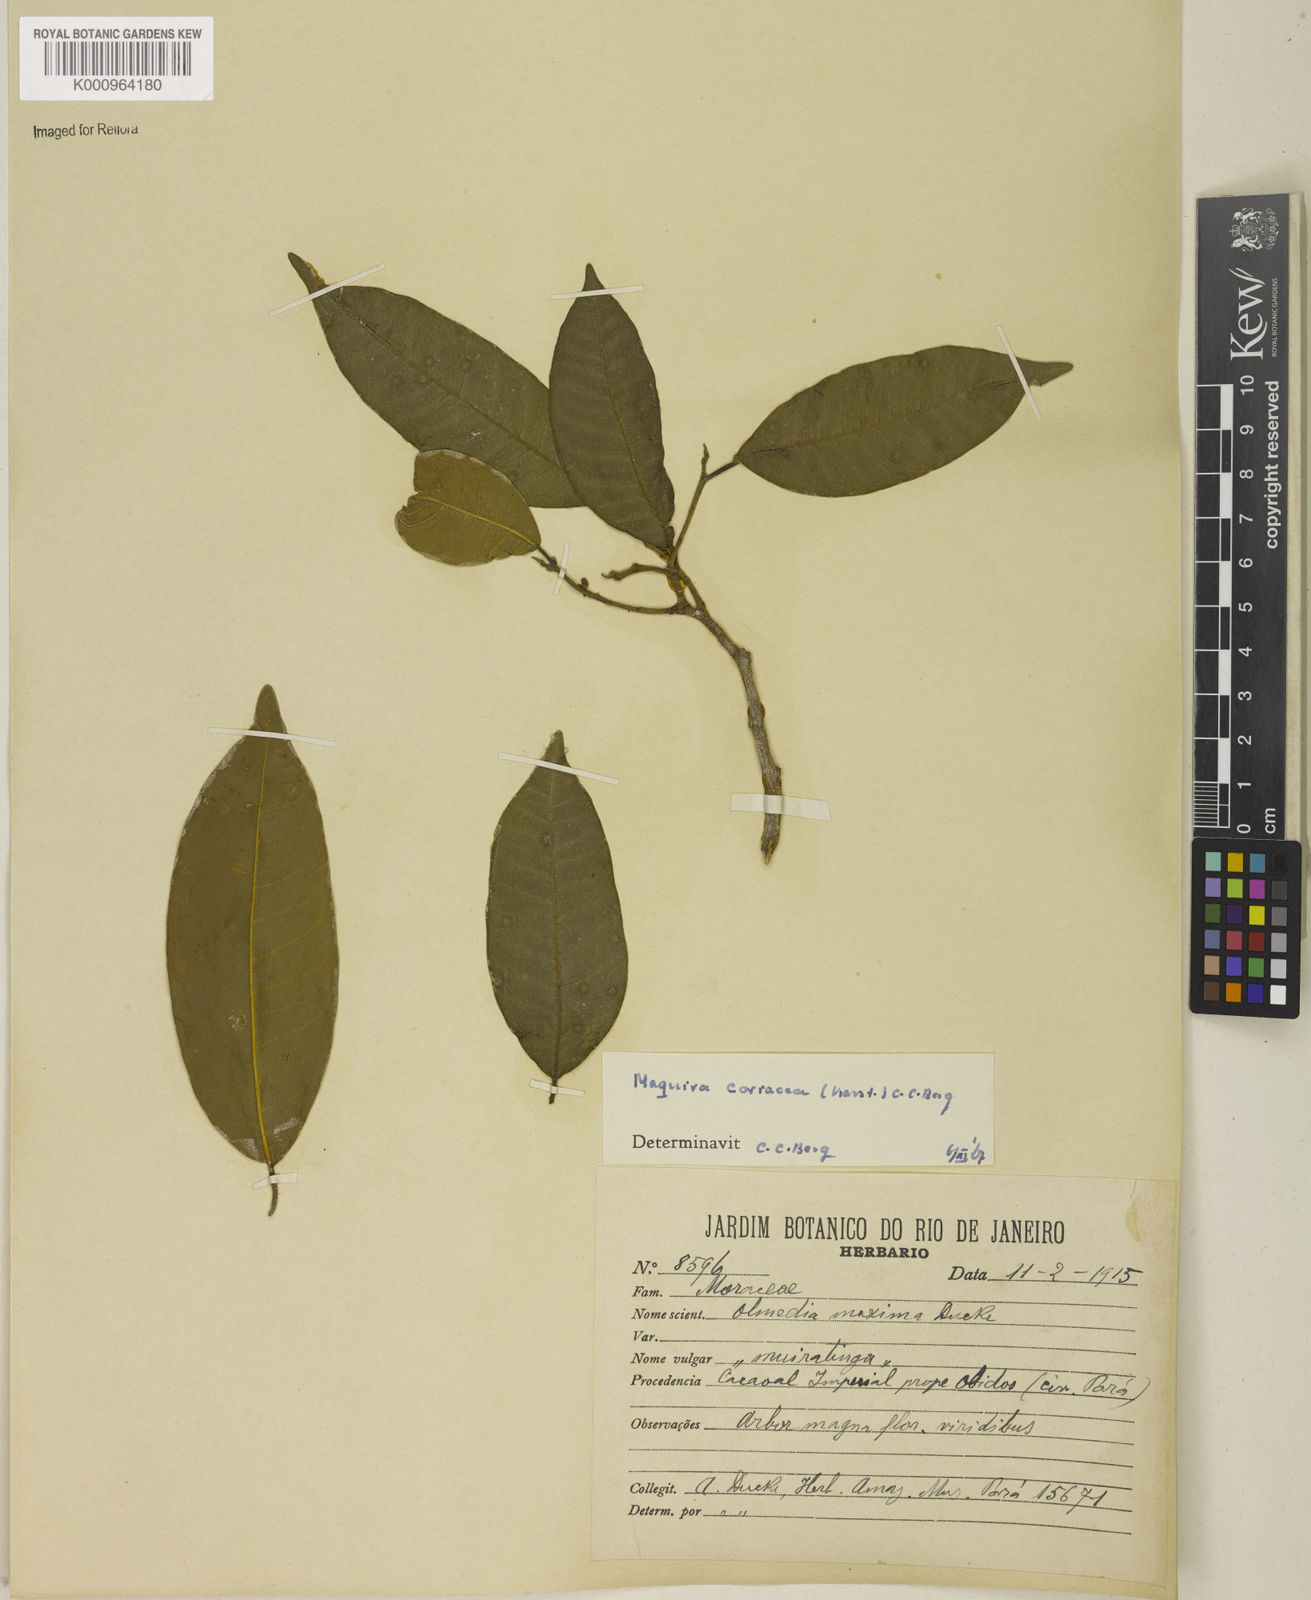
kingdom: Plantae
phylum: Tracheophyta
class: Magnoliopsida
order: Rosales
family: Moraceae
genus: Maquira
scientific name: Maquira coriacea
